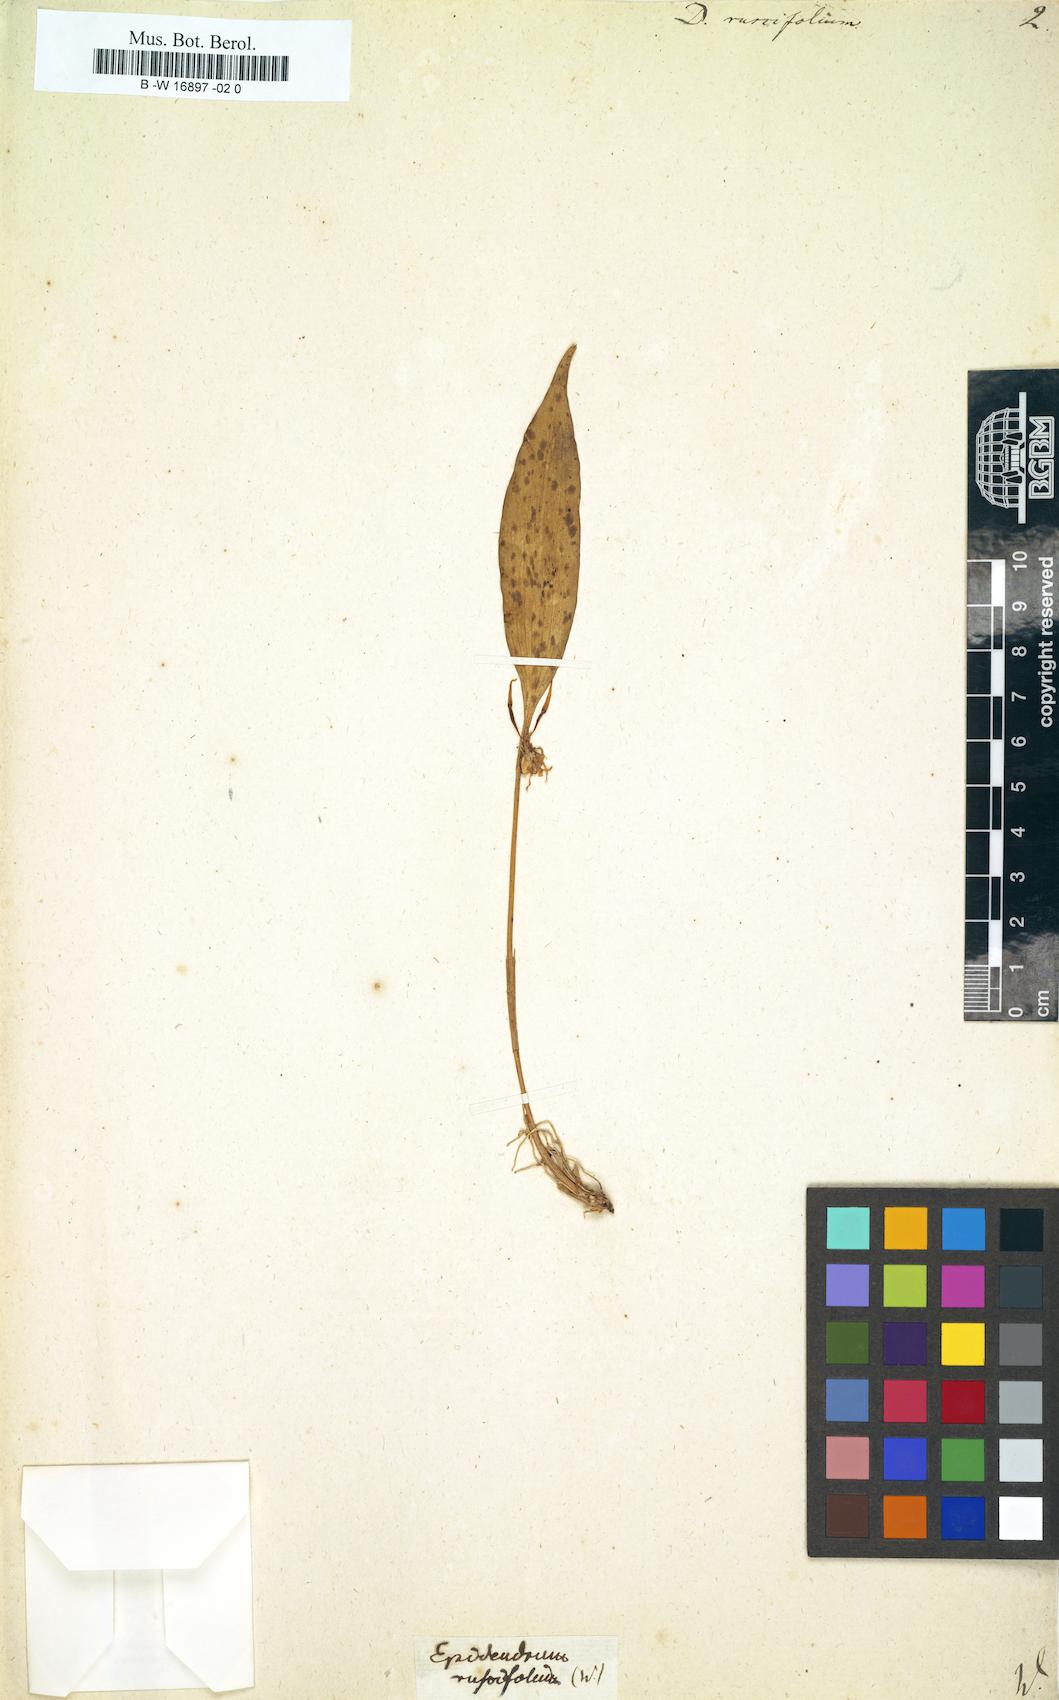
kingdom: Plantae
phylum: Tracheophyta
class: Liliopsida
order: Asparagales
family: Orchidaceae
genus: Pleurothallis
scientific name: Pleurothallis ruscifolia
